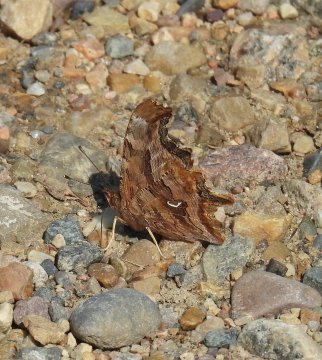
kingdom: Animalia
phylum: Arthropoda
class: Insecta
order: Lepidoptera
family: Nymphalidae
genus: Polygonia
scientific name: Polygonia satyrus
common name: Satyr Comma
